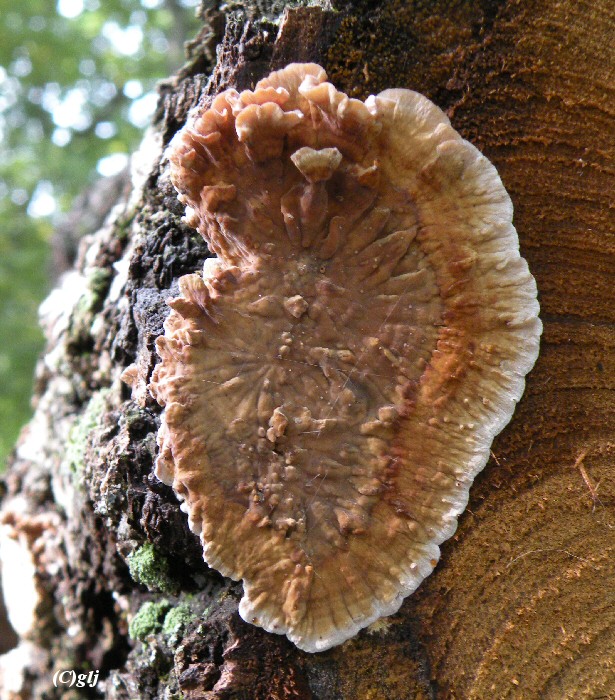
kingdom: Fungi
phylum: Basidiomycota
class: Agaricomycetes
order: Russulales
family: Stereaceae
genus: Stereum
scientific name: Stereum gausapatum
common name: tynd lædersvamp
